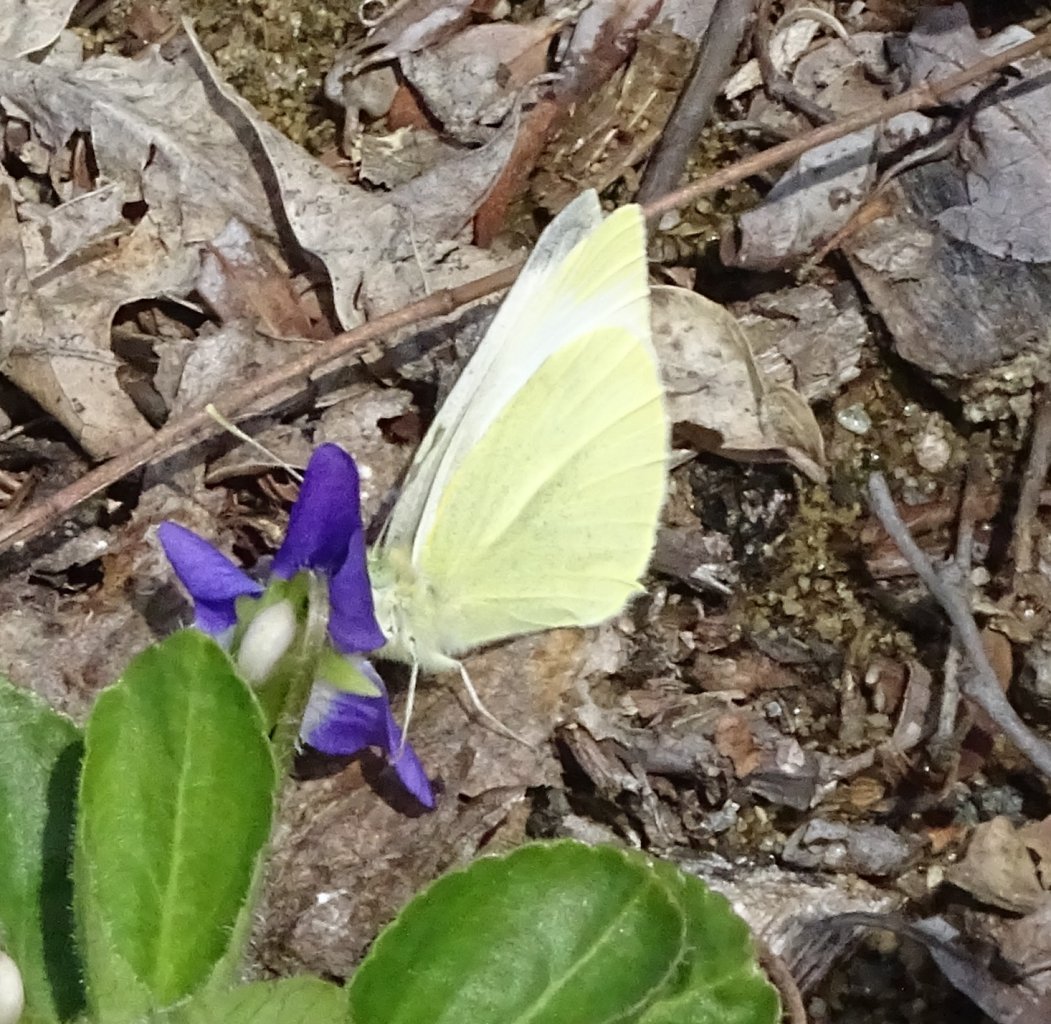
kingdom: Animalia
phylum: Arthropoda
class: Insecta
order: Lepidoptera
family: Pieridae
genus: Pieris
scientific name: Pieris rapae
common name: Cabbage White
